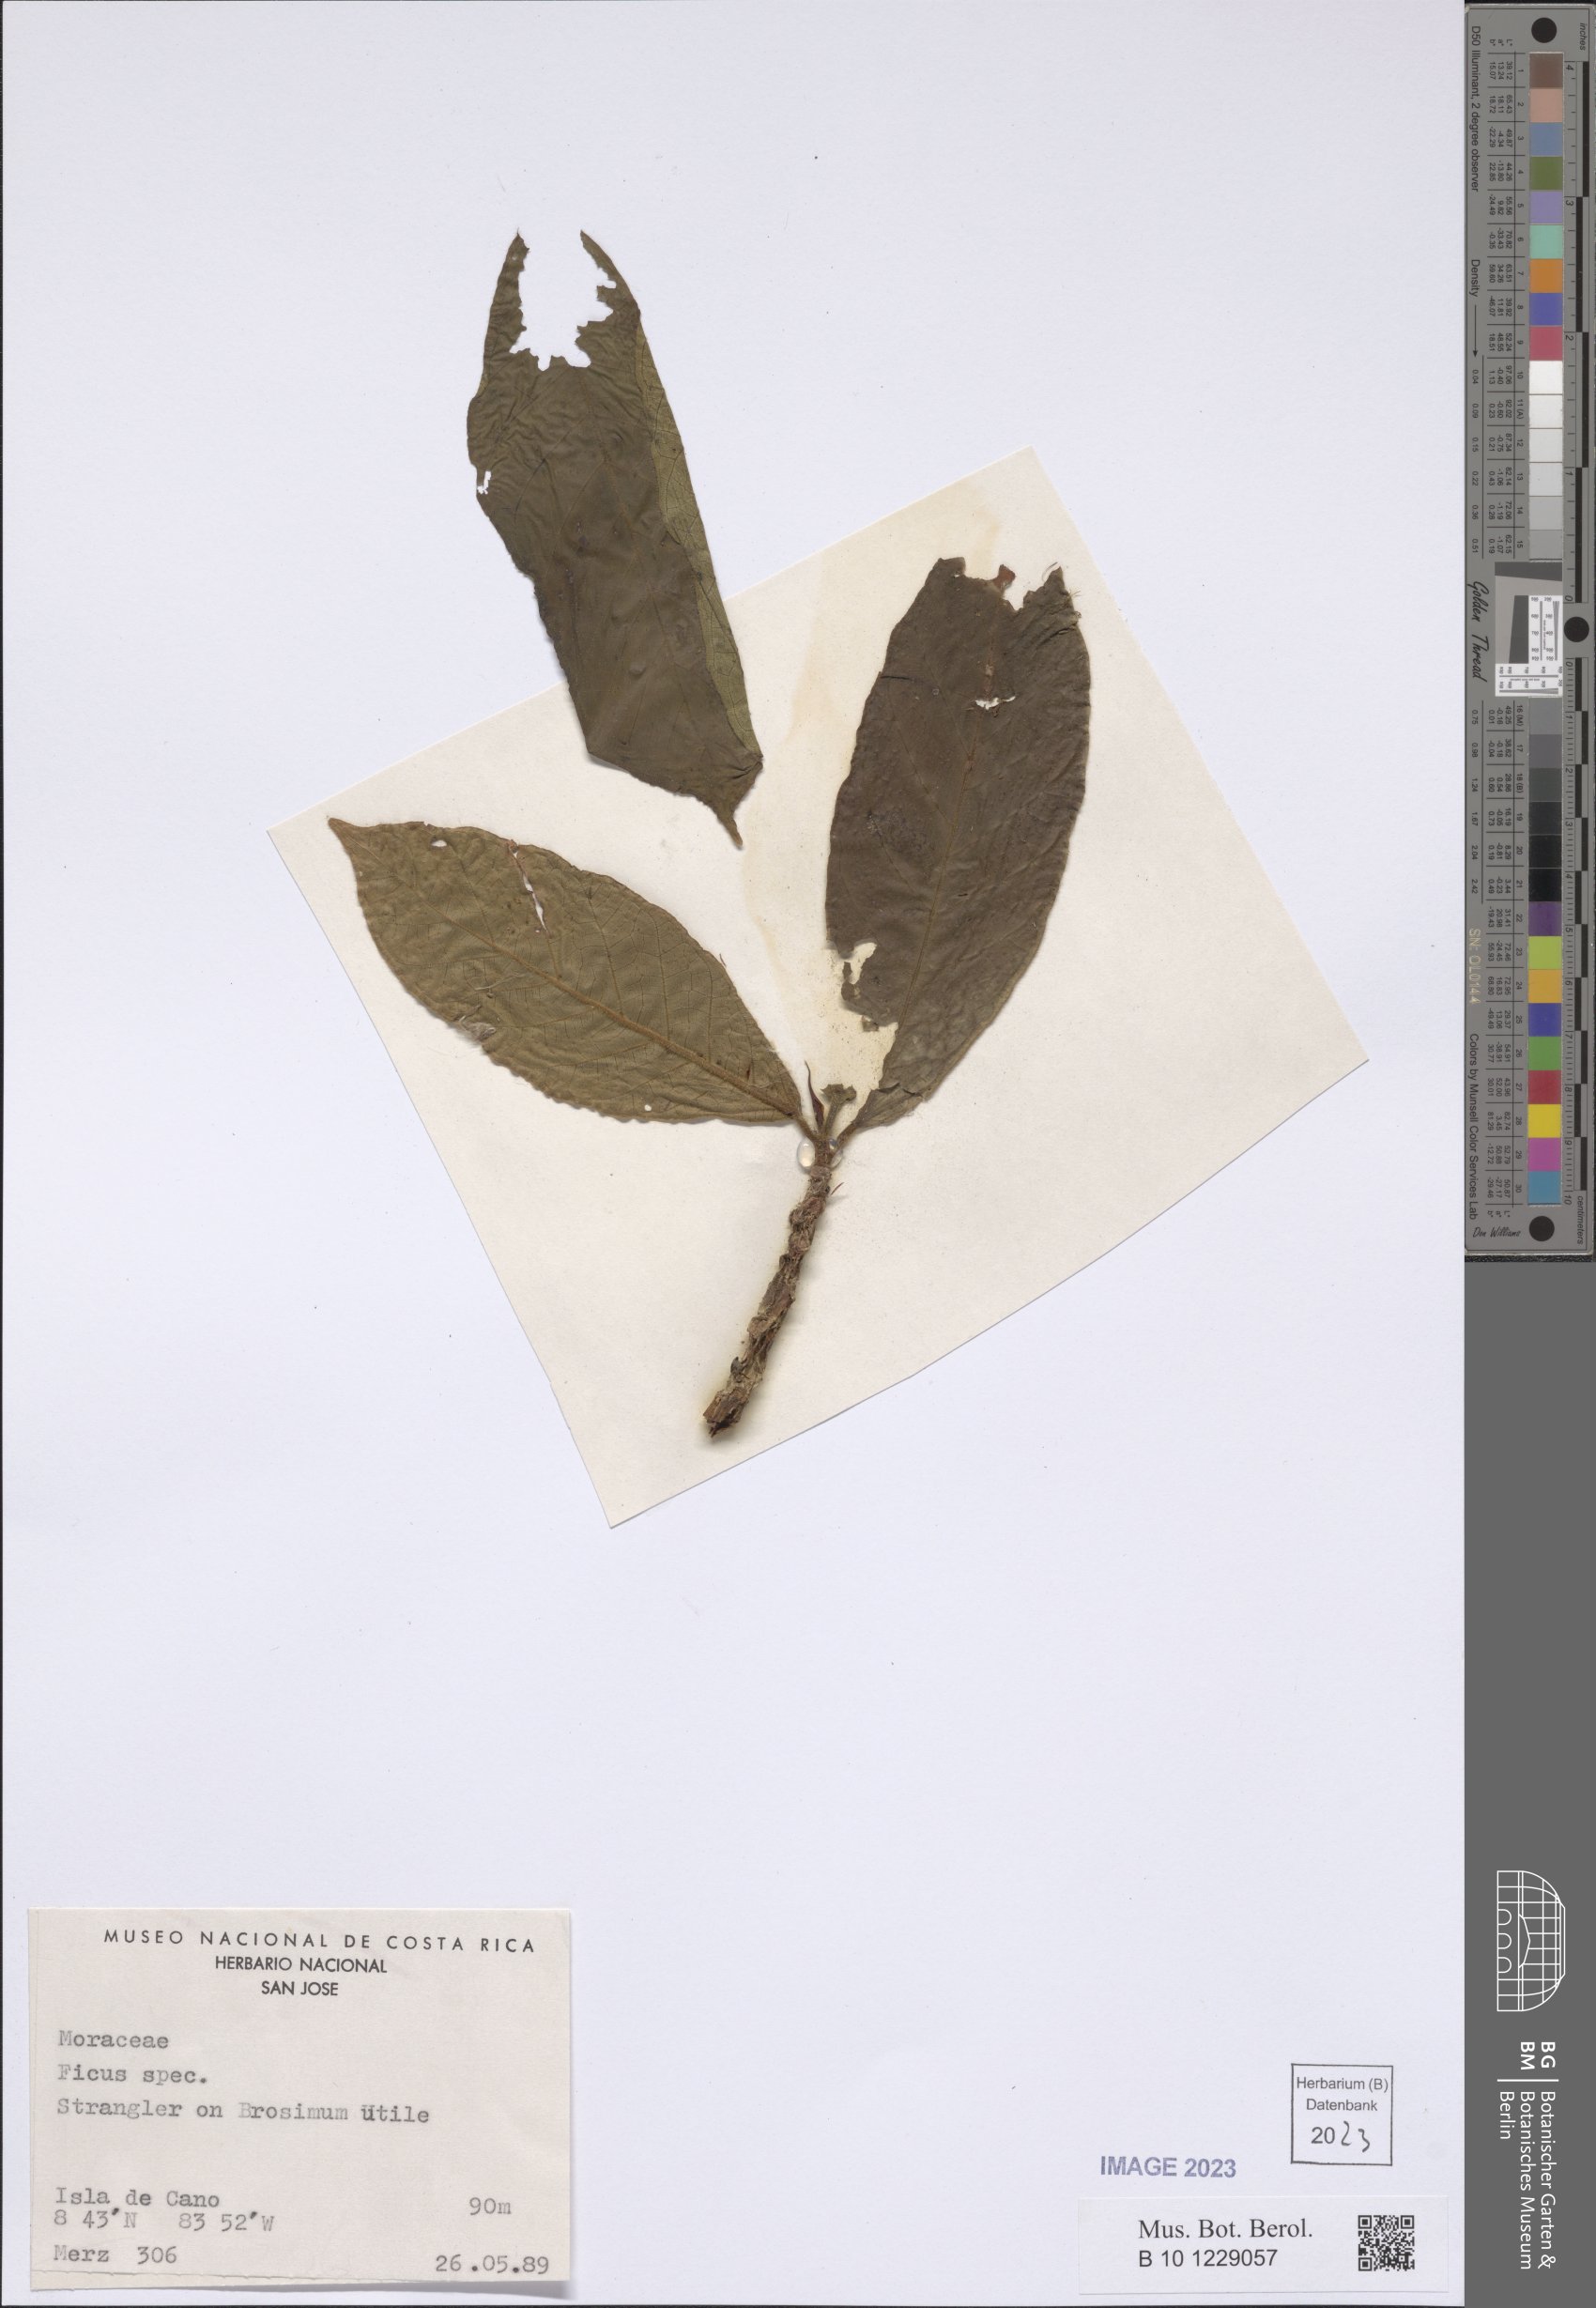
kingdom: Plantae
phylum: Tracheophyta
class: Magnoliopsida
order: Rosales
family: Moraceae
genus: Ficus
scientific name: Ficus
